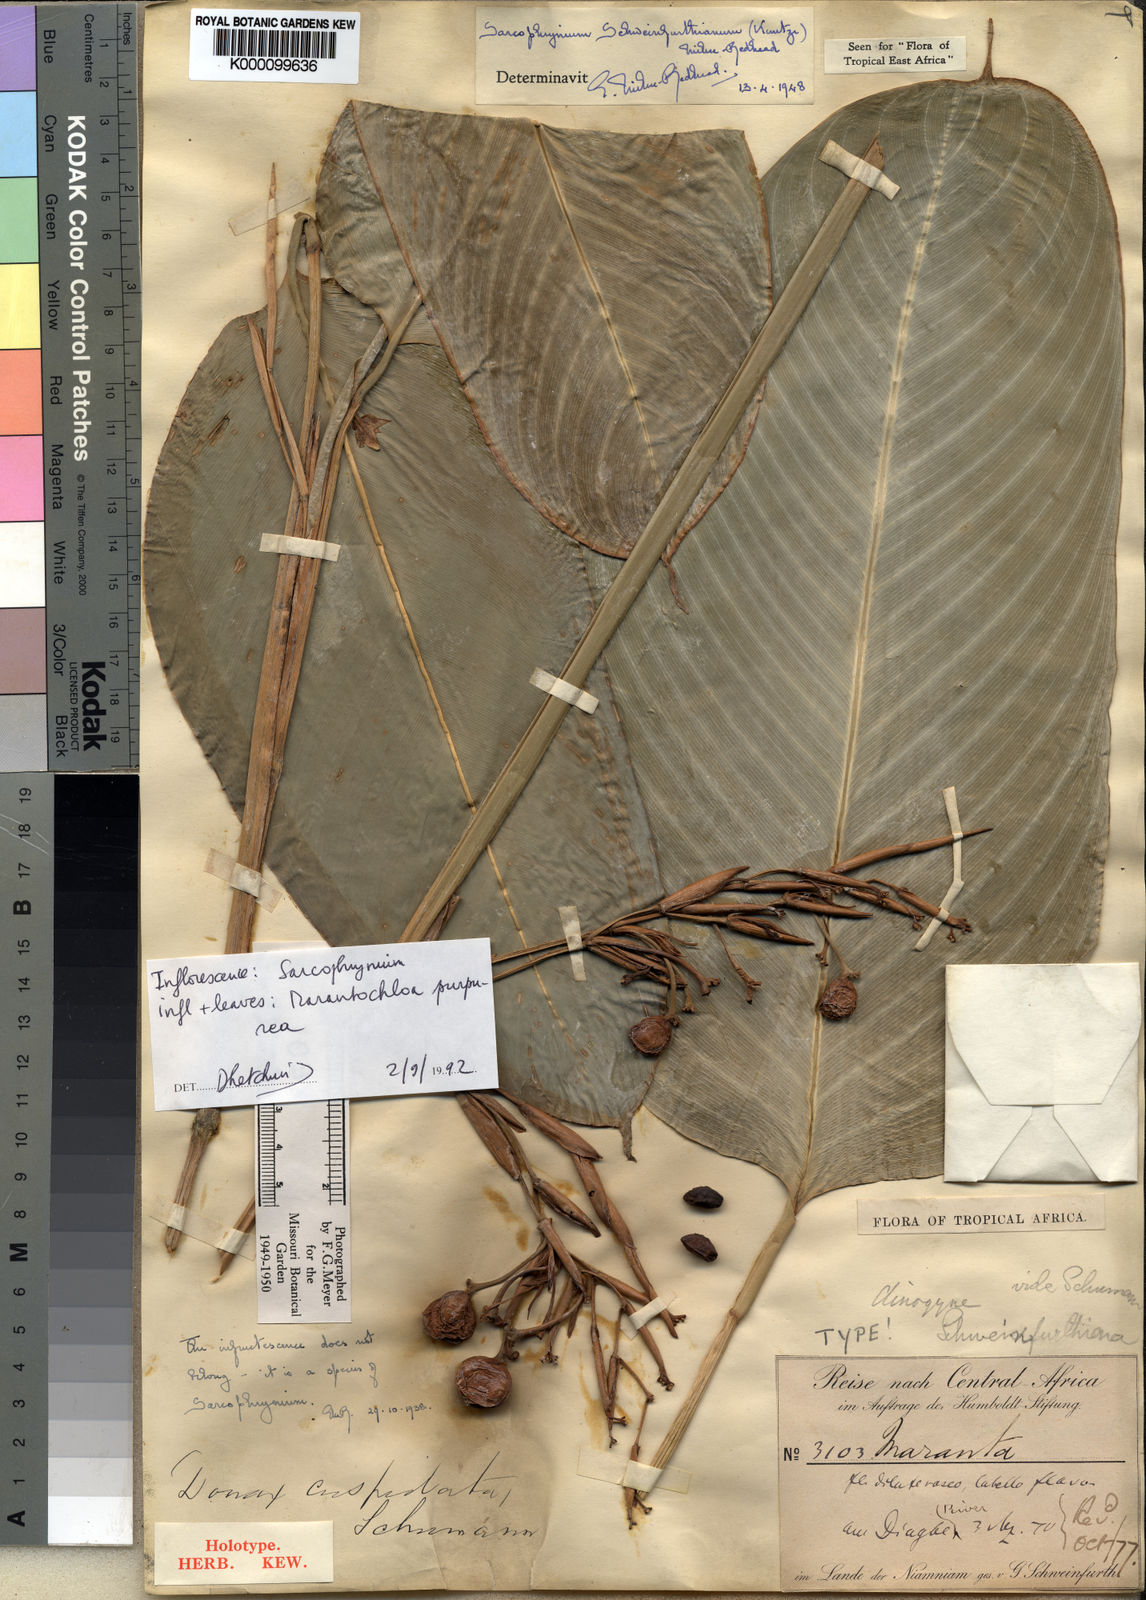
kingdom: Plantae
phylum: Tracheophyta
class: Liliopsida
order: Zingiberales
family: Marantaceae
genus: Sarcophrynium
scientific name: Sarcophrynium schweinfurthianum
